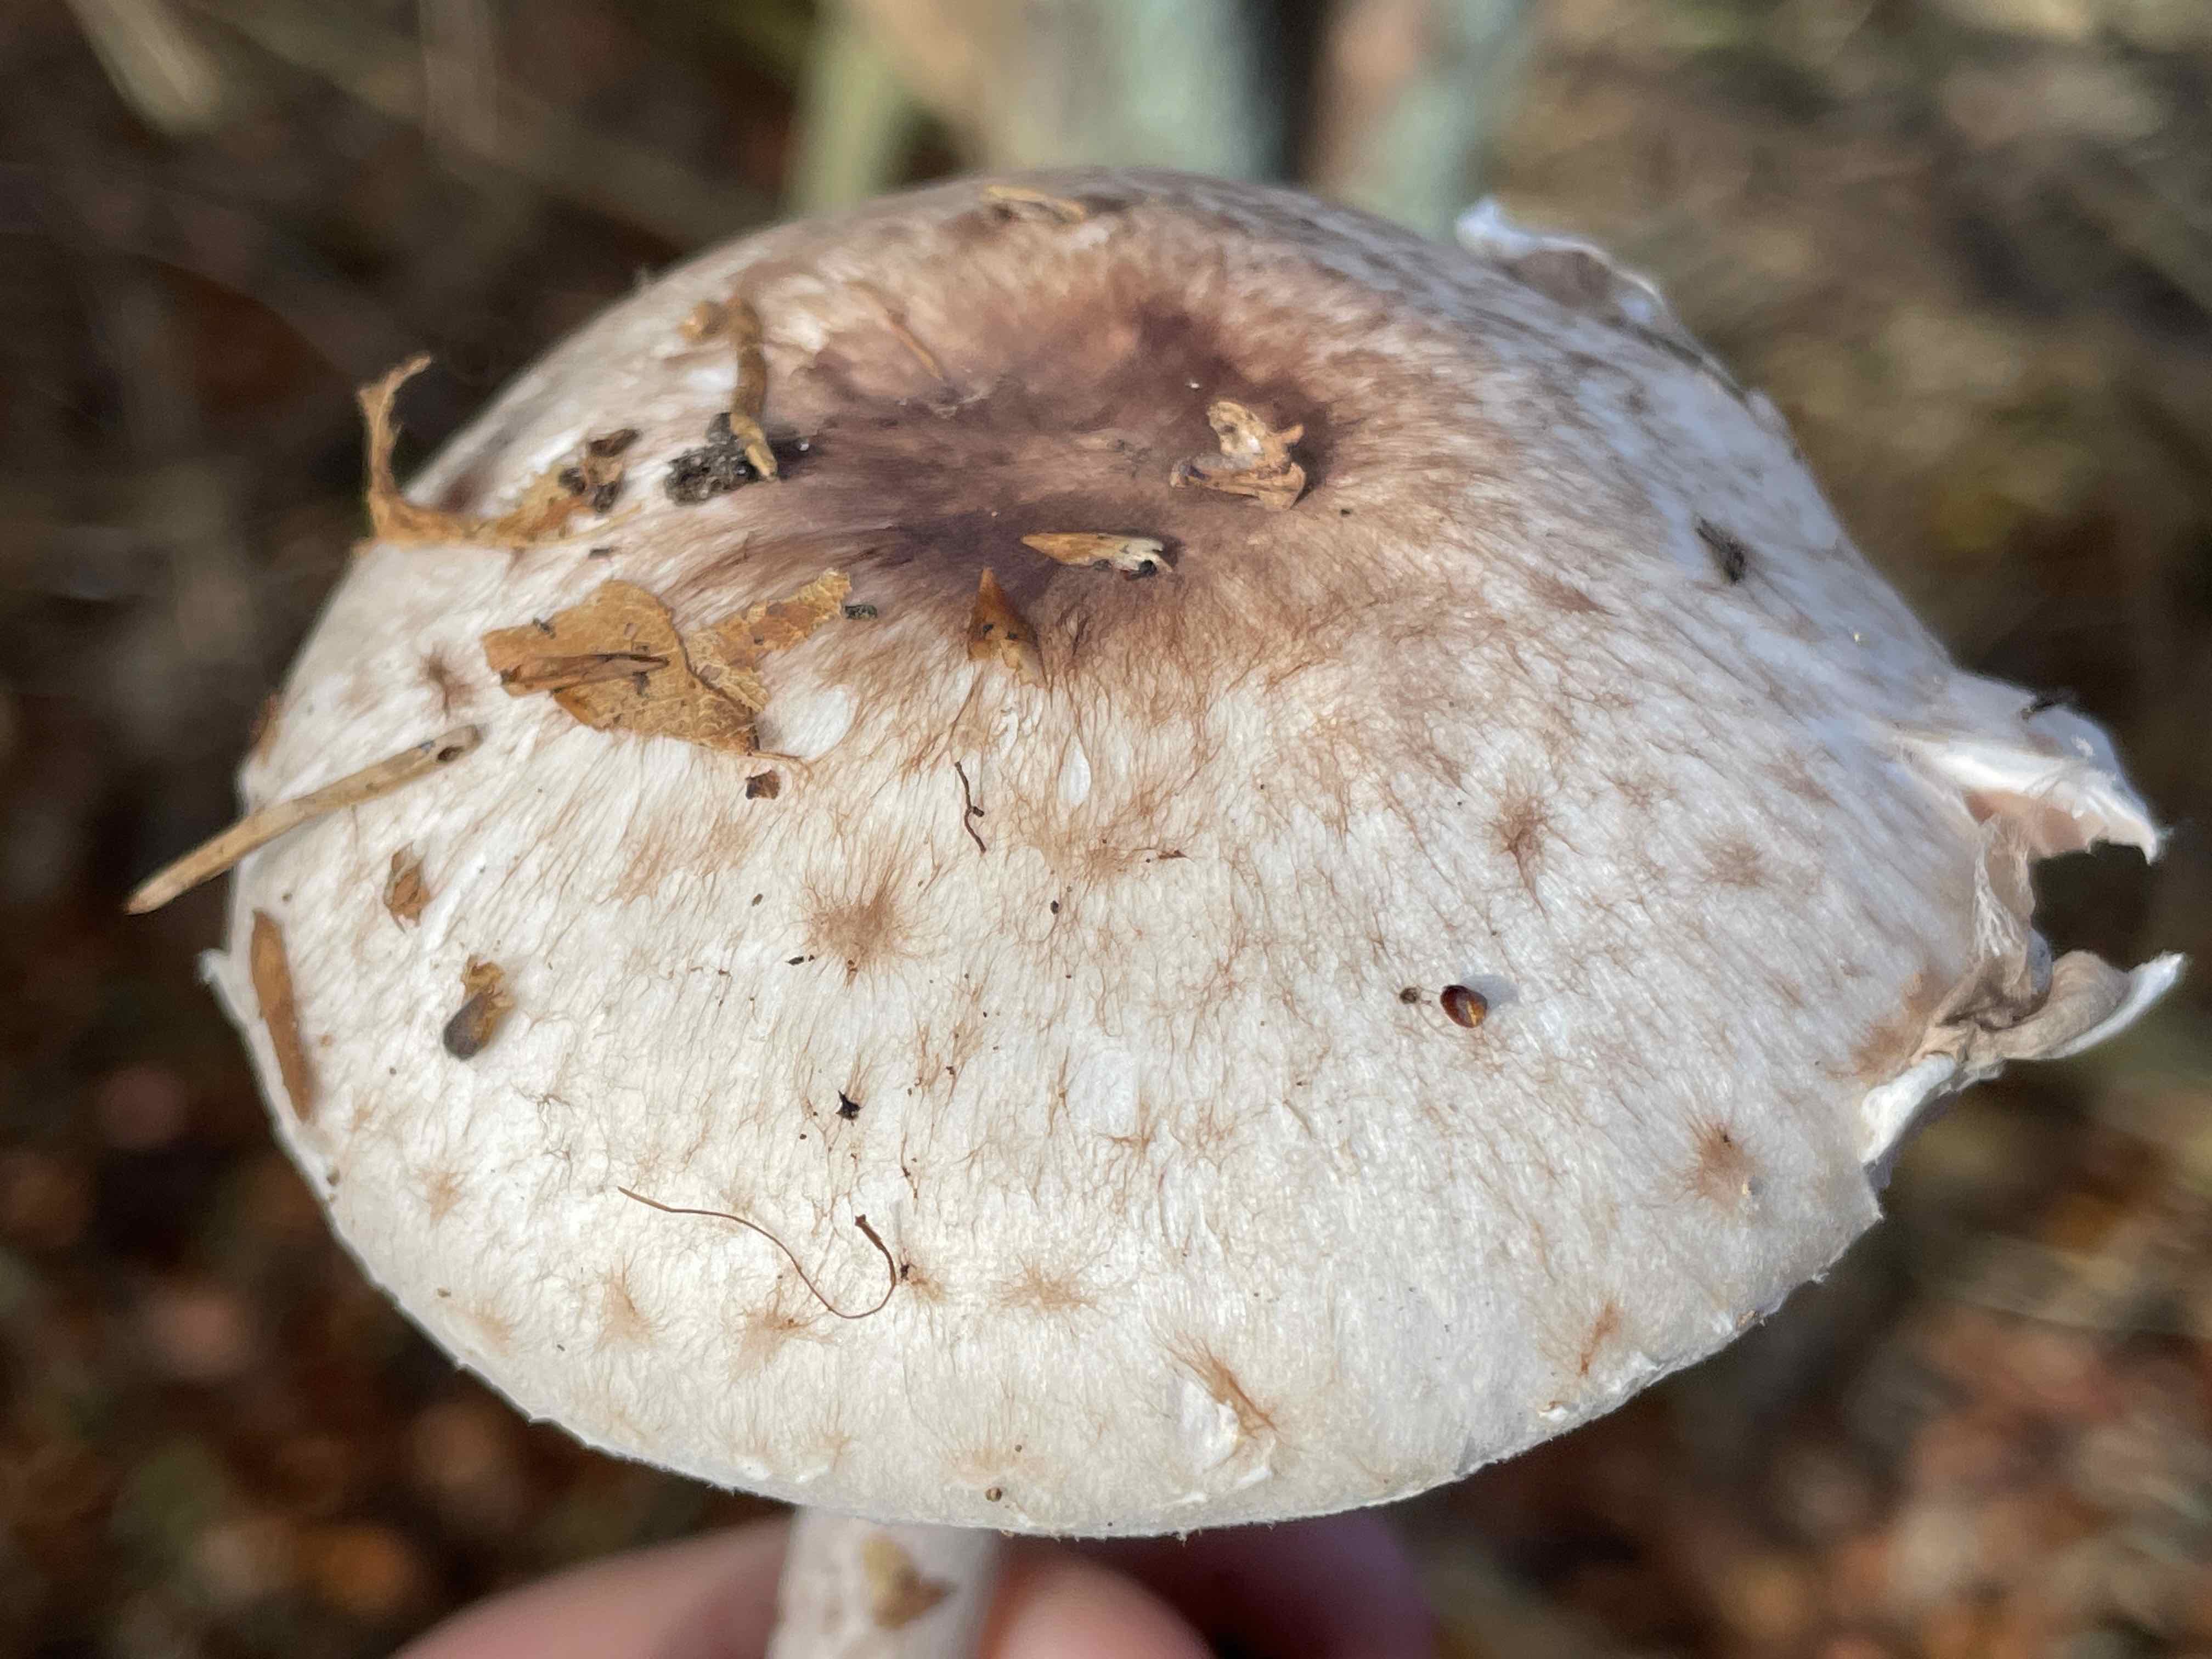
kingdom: Fungi
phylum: Basidiomycota
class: Agaricomycetes
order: Agaricales
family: Agaricaceae
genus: Agaricus
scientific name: Agaricus impudicus
